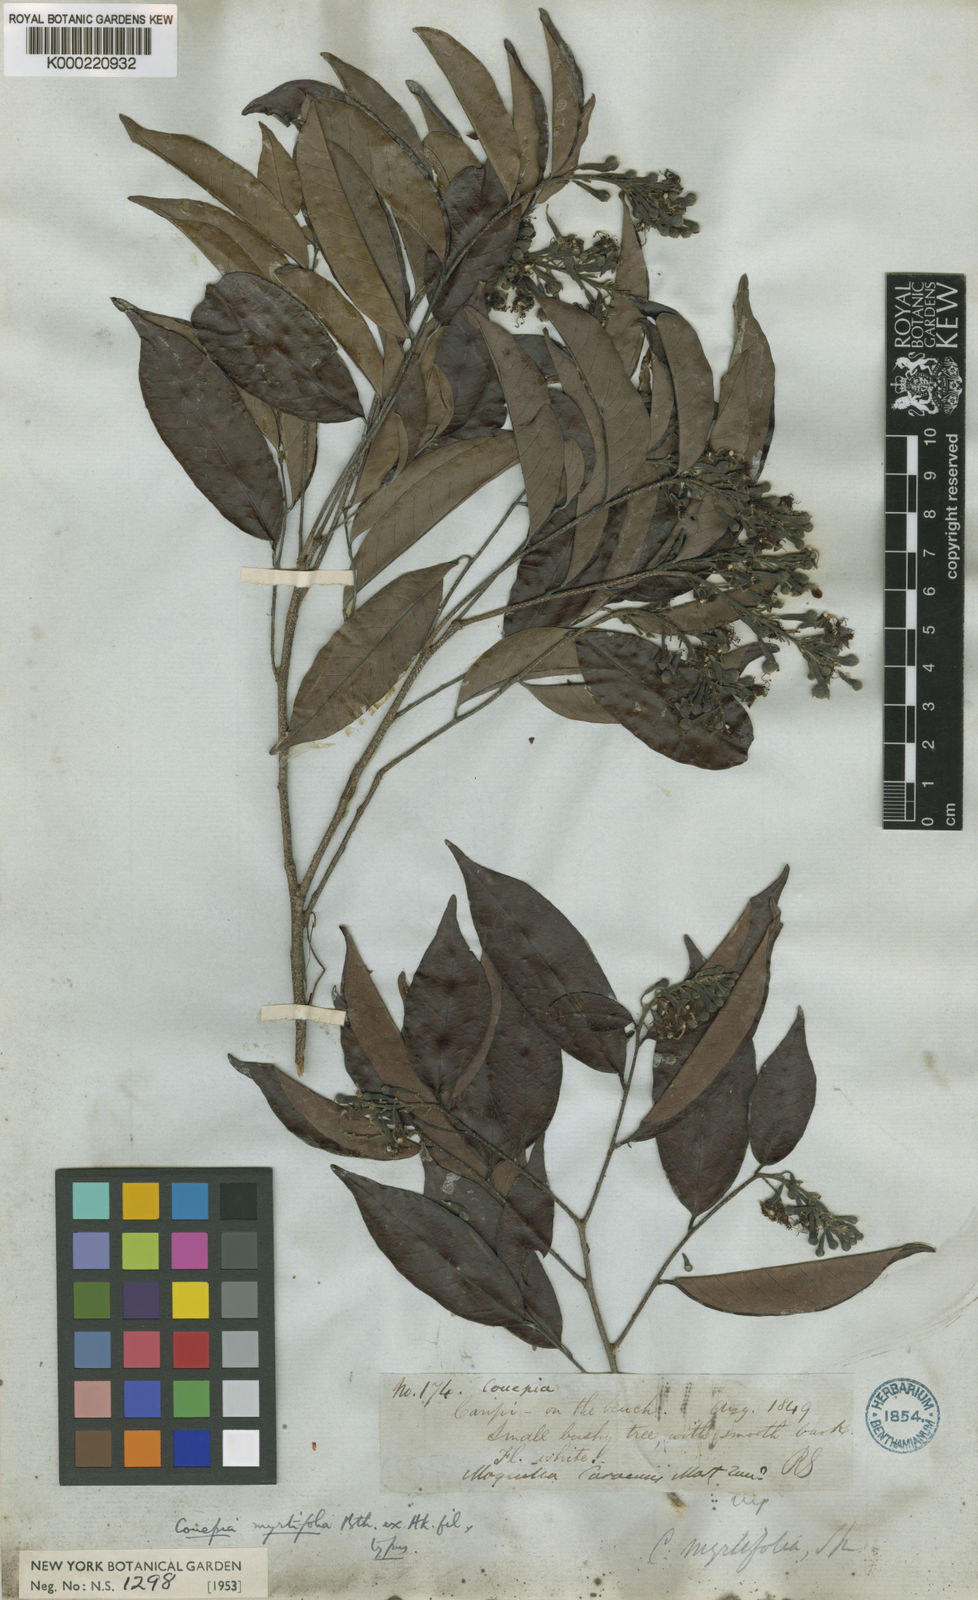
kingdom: Plantae
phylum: Tracheophyta
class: Magnoliopsida
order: Malpighiales
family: Chrysobalanaceae
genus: Couepia
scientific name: Couepia guianensis
